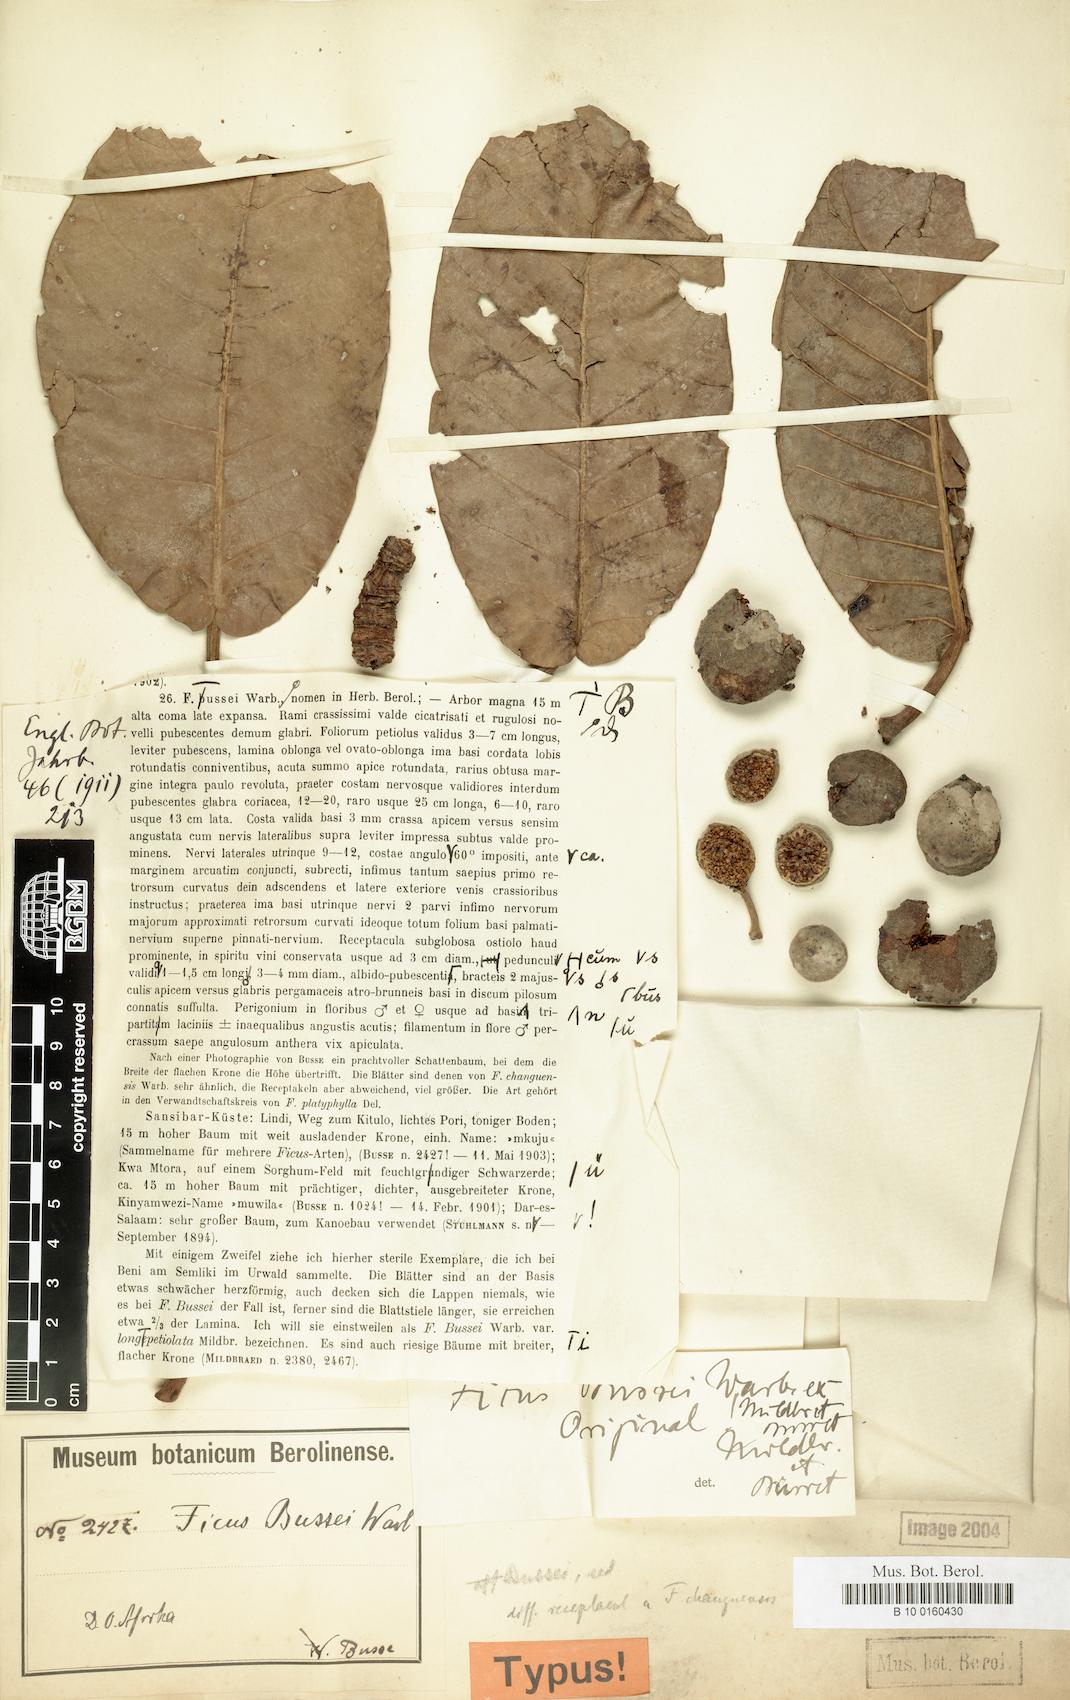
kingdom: Plantae
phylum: Tracheophyta
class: Magnoliopsida
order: Rosales
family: Moraceae
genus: Ficus
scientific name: Ficus bussei
